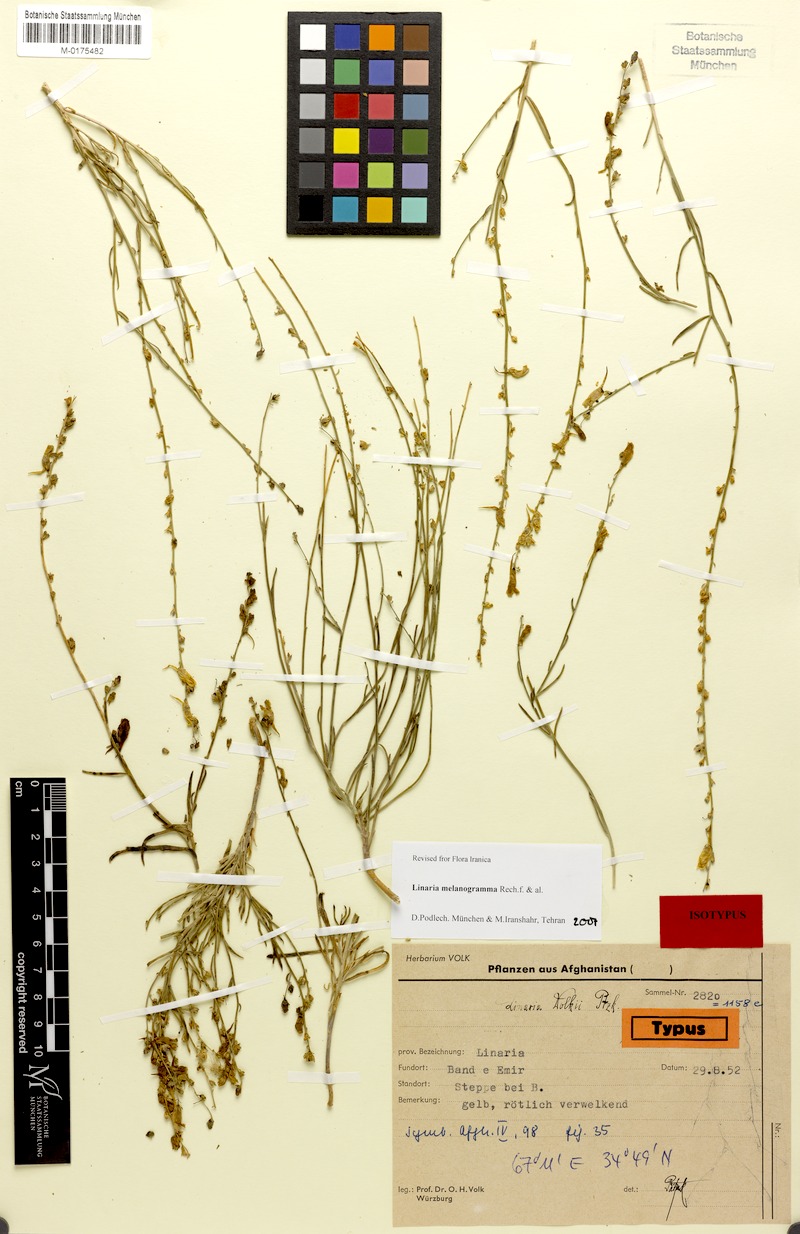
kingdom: Plantae
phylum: Tracheophyta
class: Magnoliopsida
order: Lamiales
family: Plantaginaceae
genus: Linaria
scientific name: Linaria melanogramma
